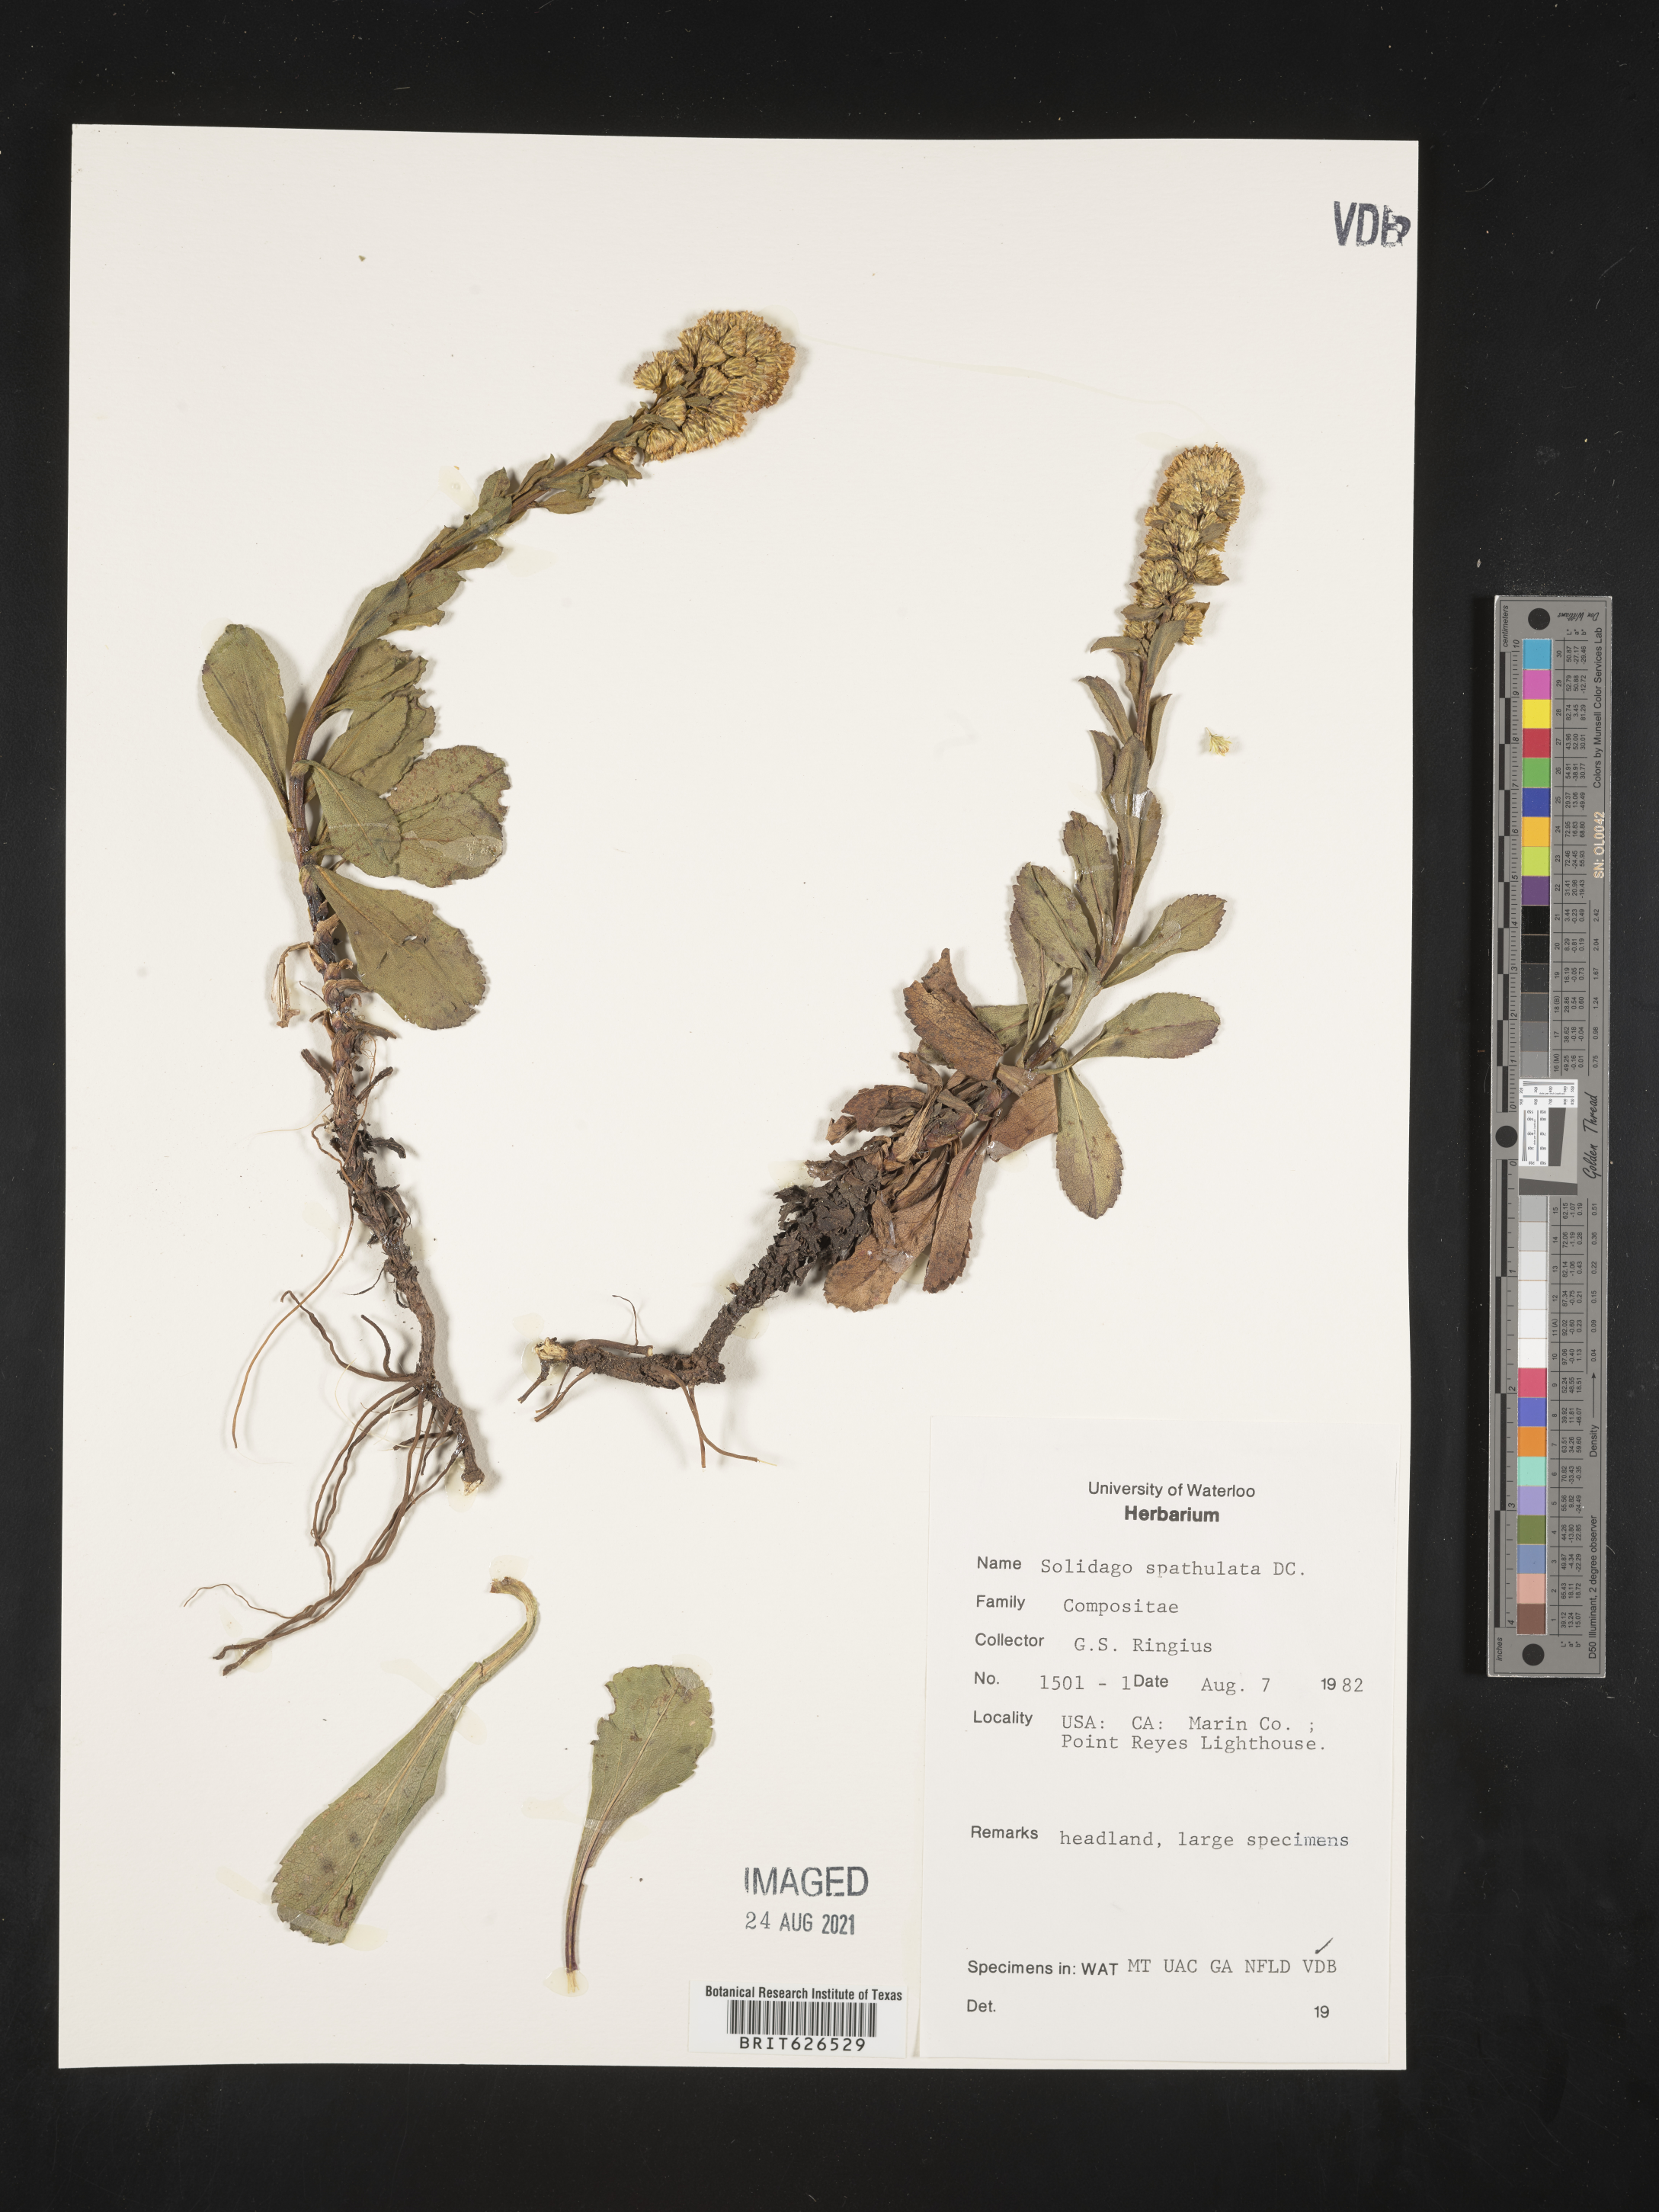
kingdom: Plantae
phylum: Tracheophyta
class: Magnoliopsida
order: Asterales
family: Asteraceae
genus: Solidago
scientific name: Solidago spathulata
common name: Coast goldenrod
